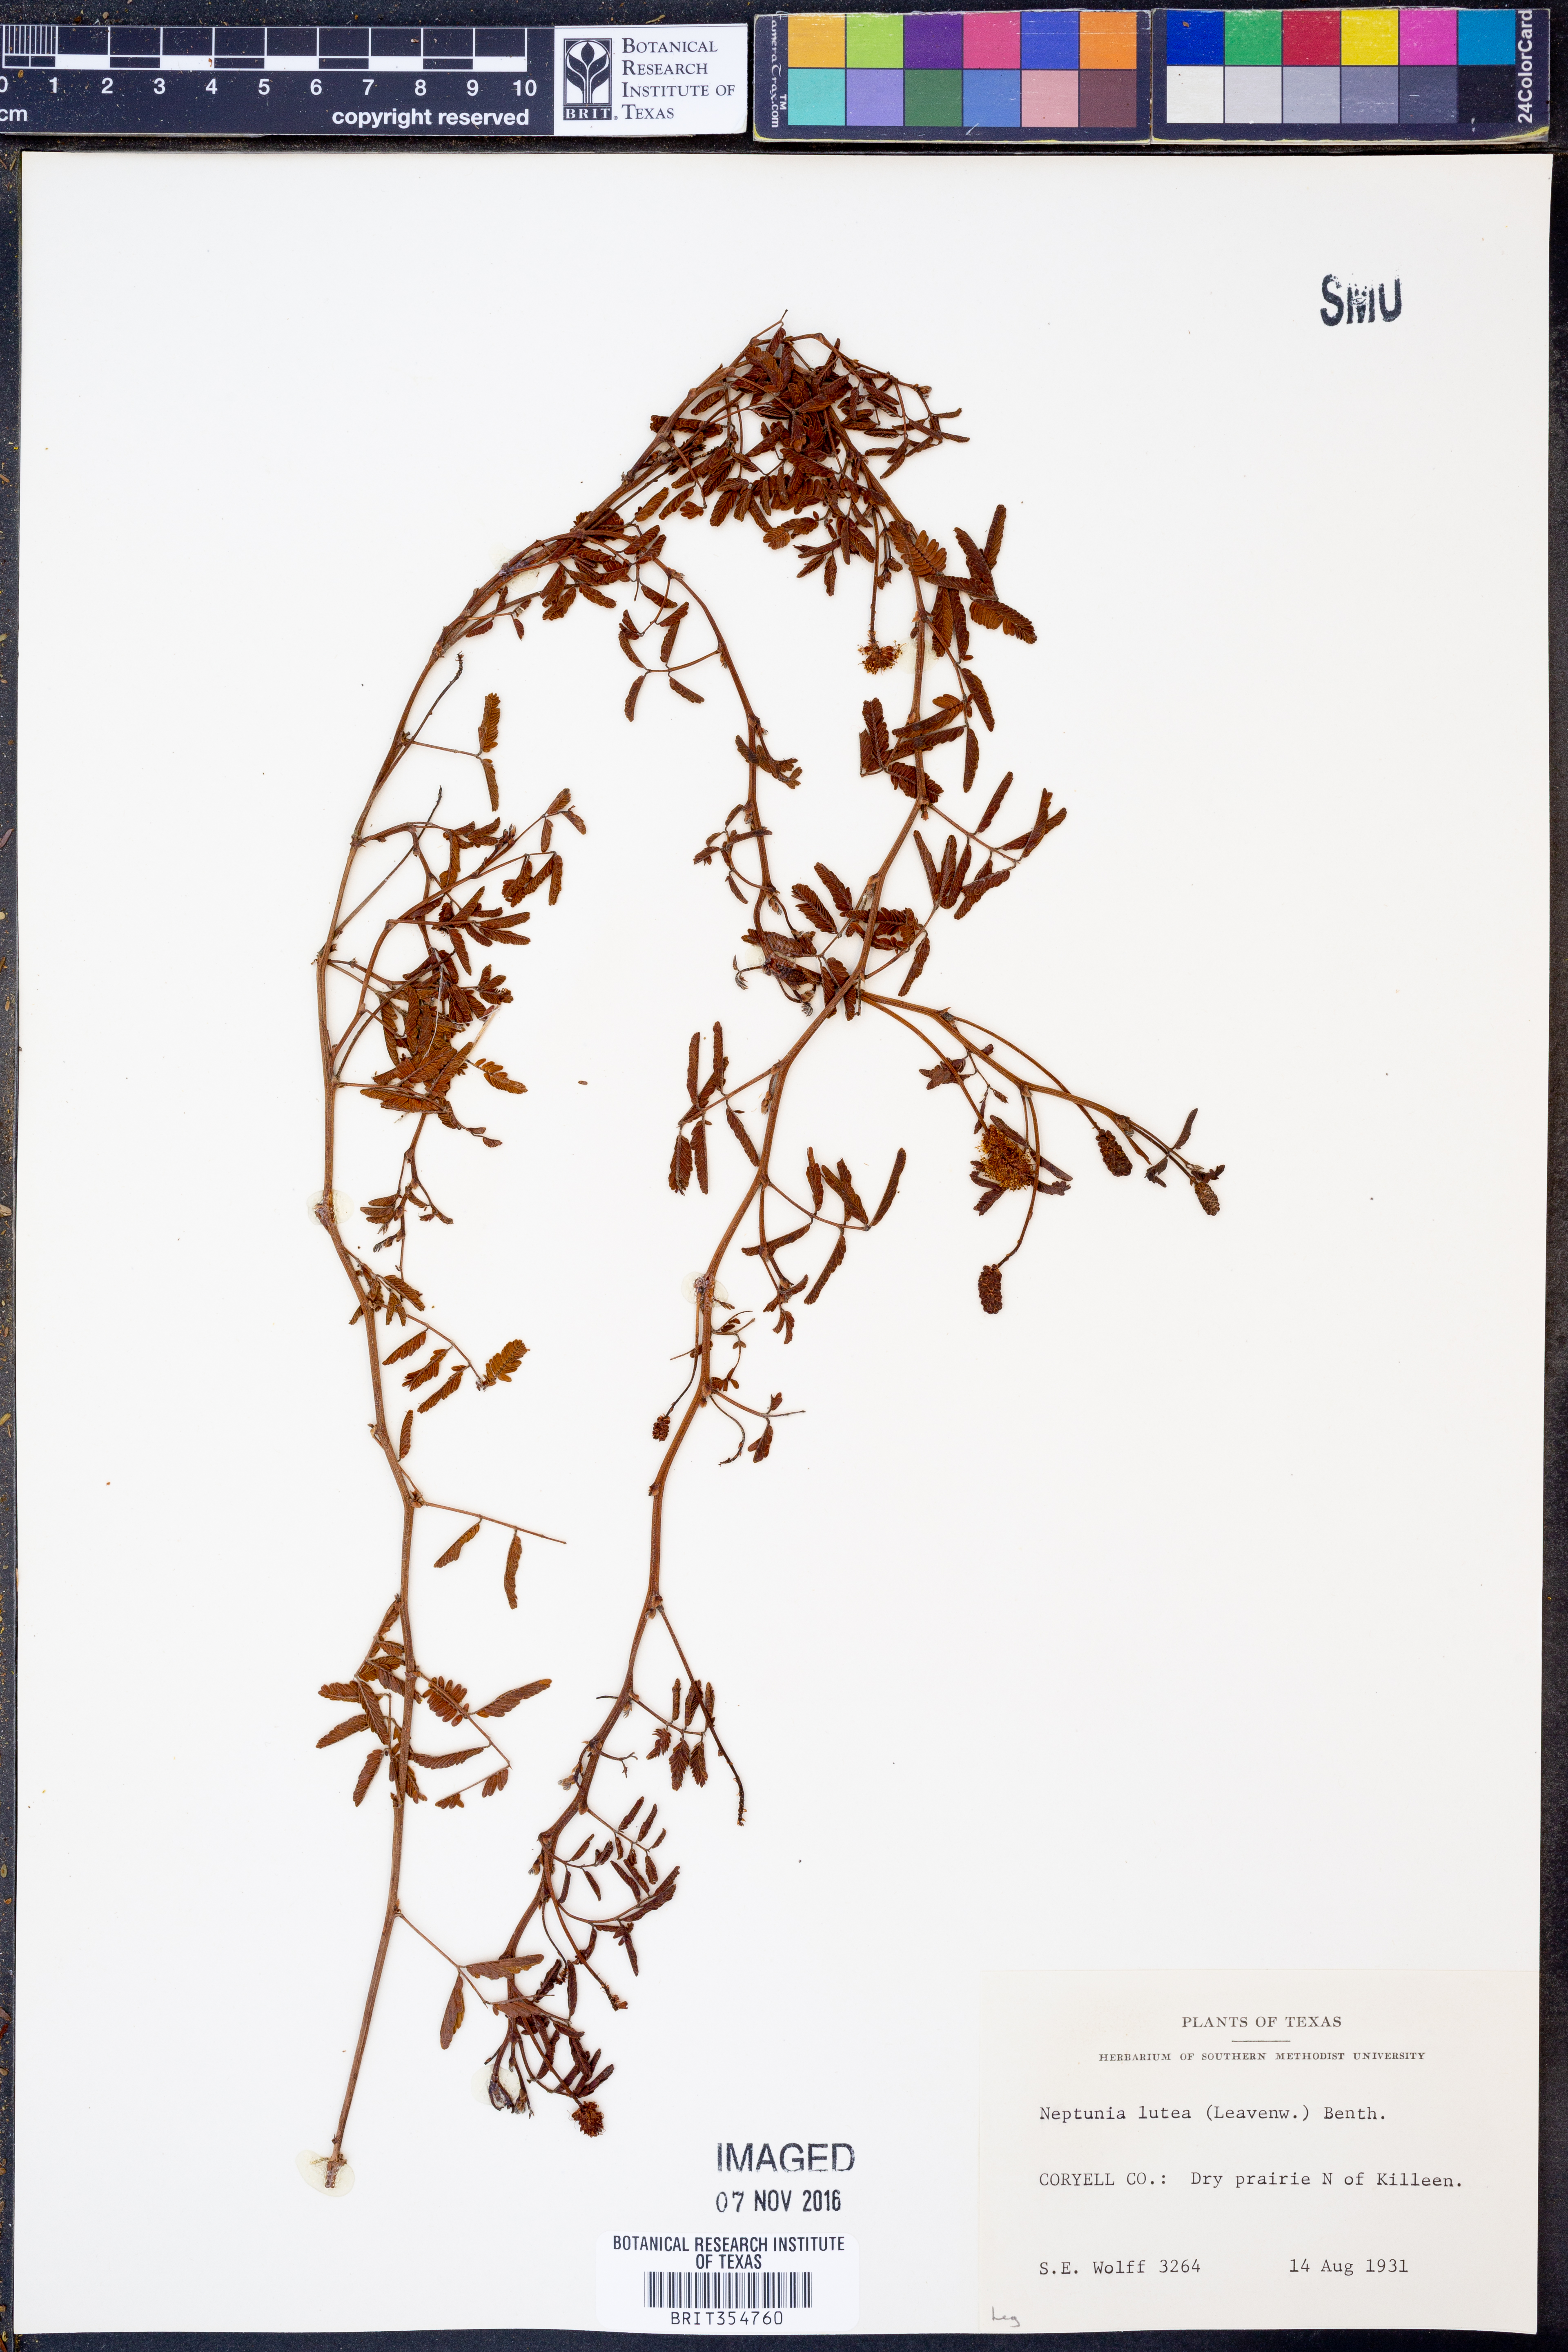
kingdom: Plantae
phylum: Tracheophyta
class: Magnoliopsida
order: Fabales
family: Fabaceae
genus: Neptunia
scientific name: Neptunia lutea
